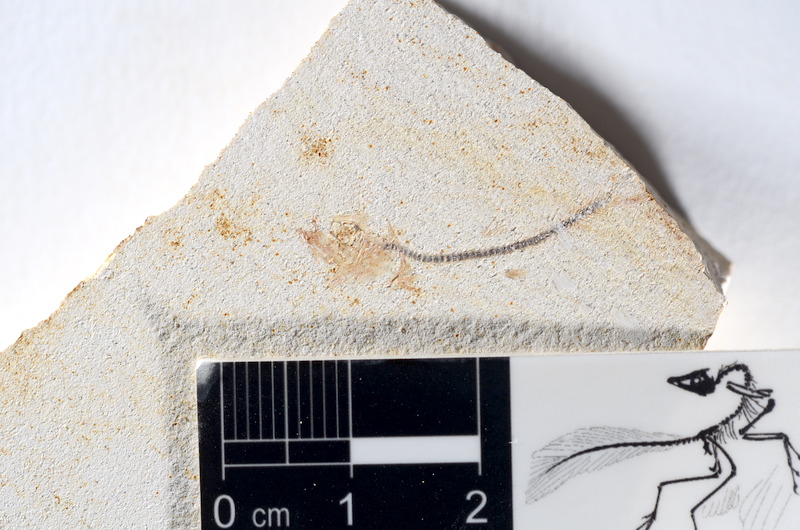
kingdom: Animalia
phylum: Chordata
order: Salmoniformes
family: Orthogonikleithridae
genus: Orthogonikleithrus
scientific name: Orthogonikleithrus hoelli
